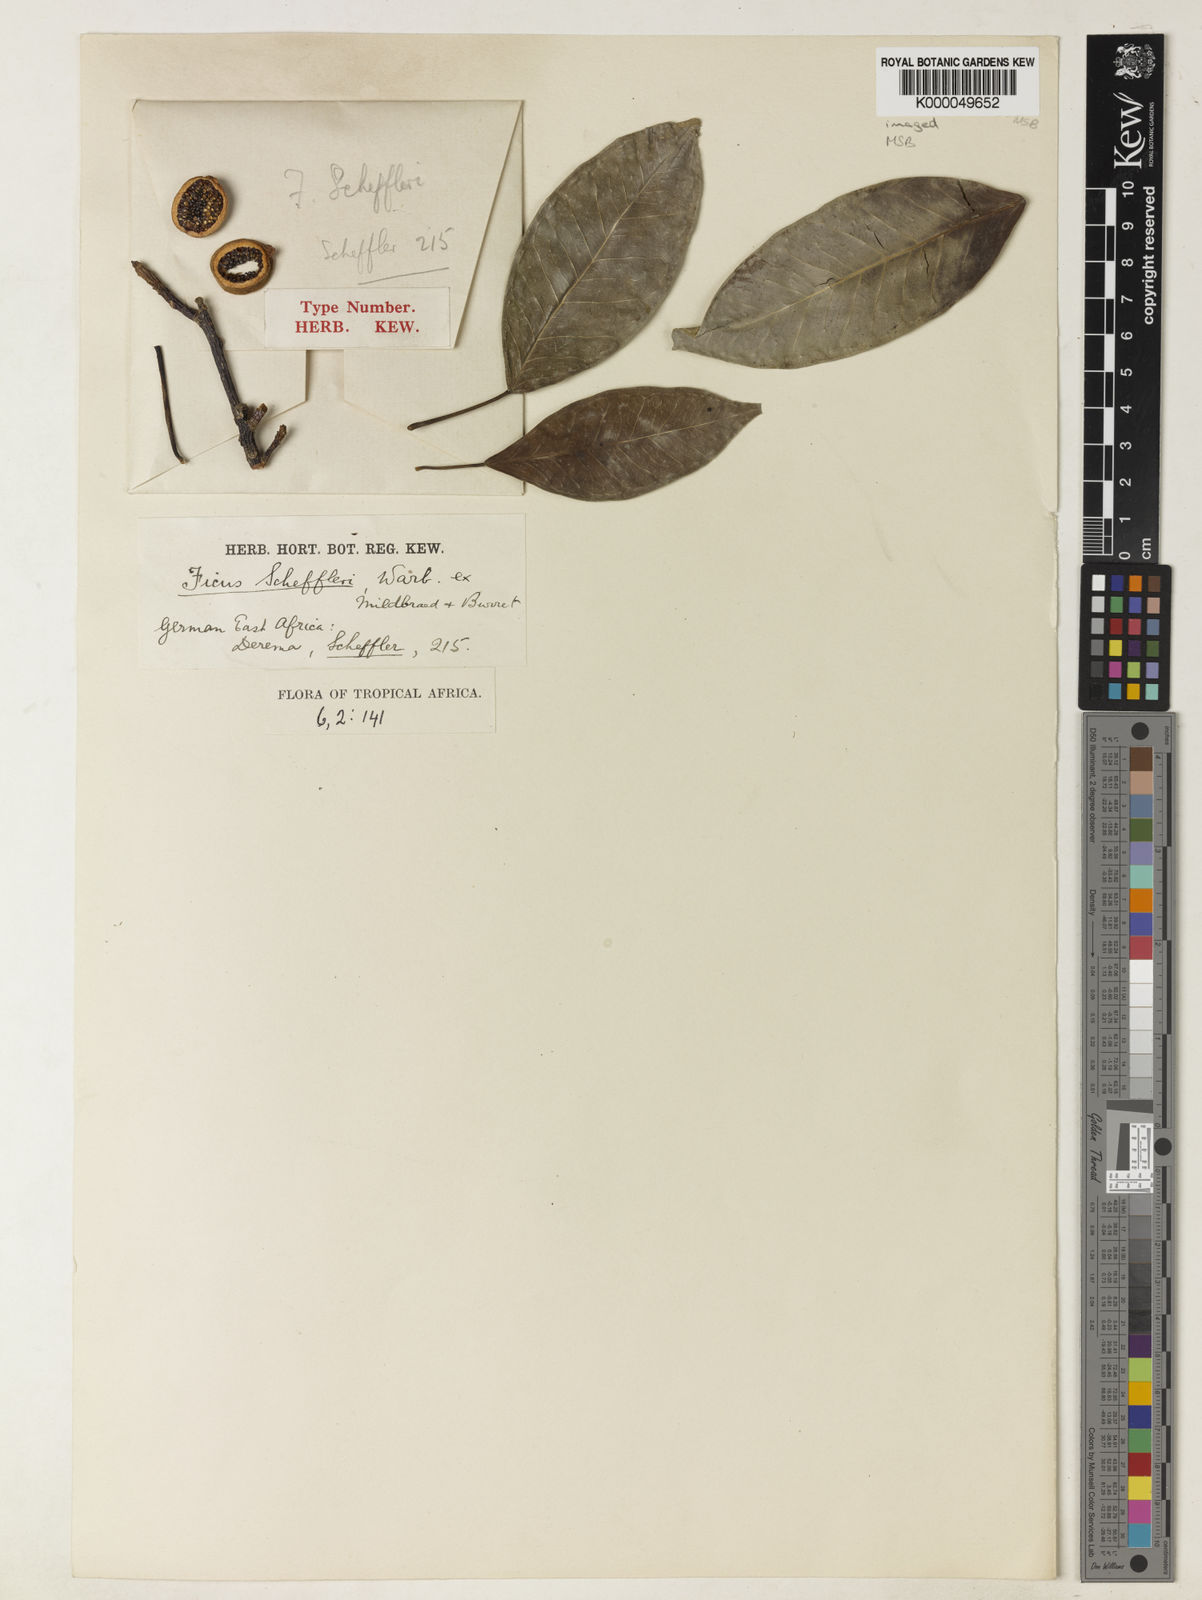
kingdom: Plantae
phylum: Tracheophyta
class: Magnoliopsida
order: Rosales
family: Moraceae
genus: Ficus
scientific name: Ficus ottoniifolia
